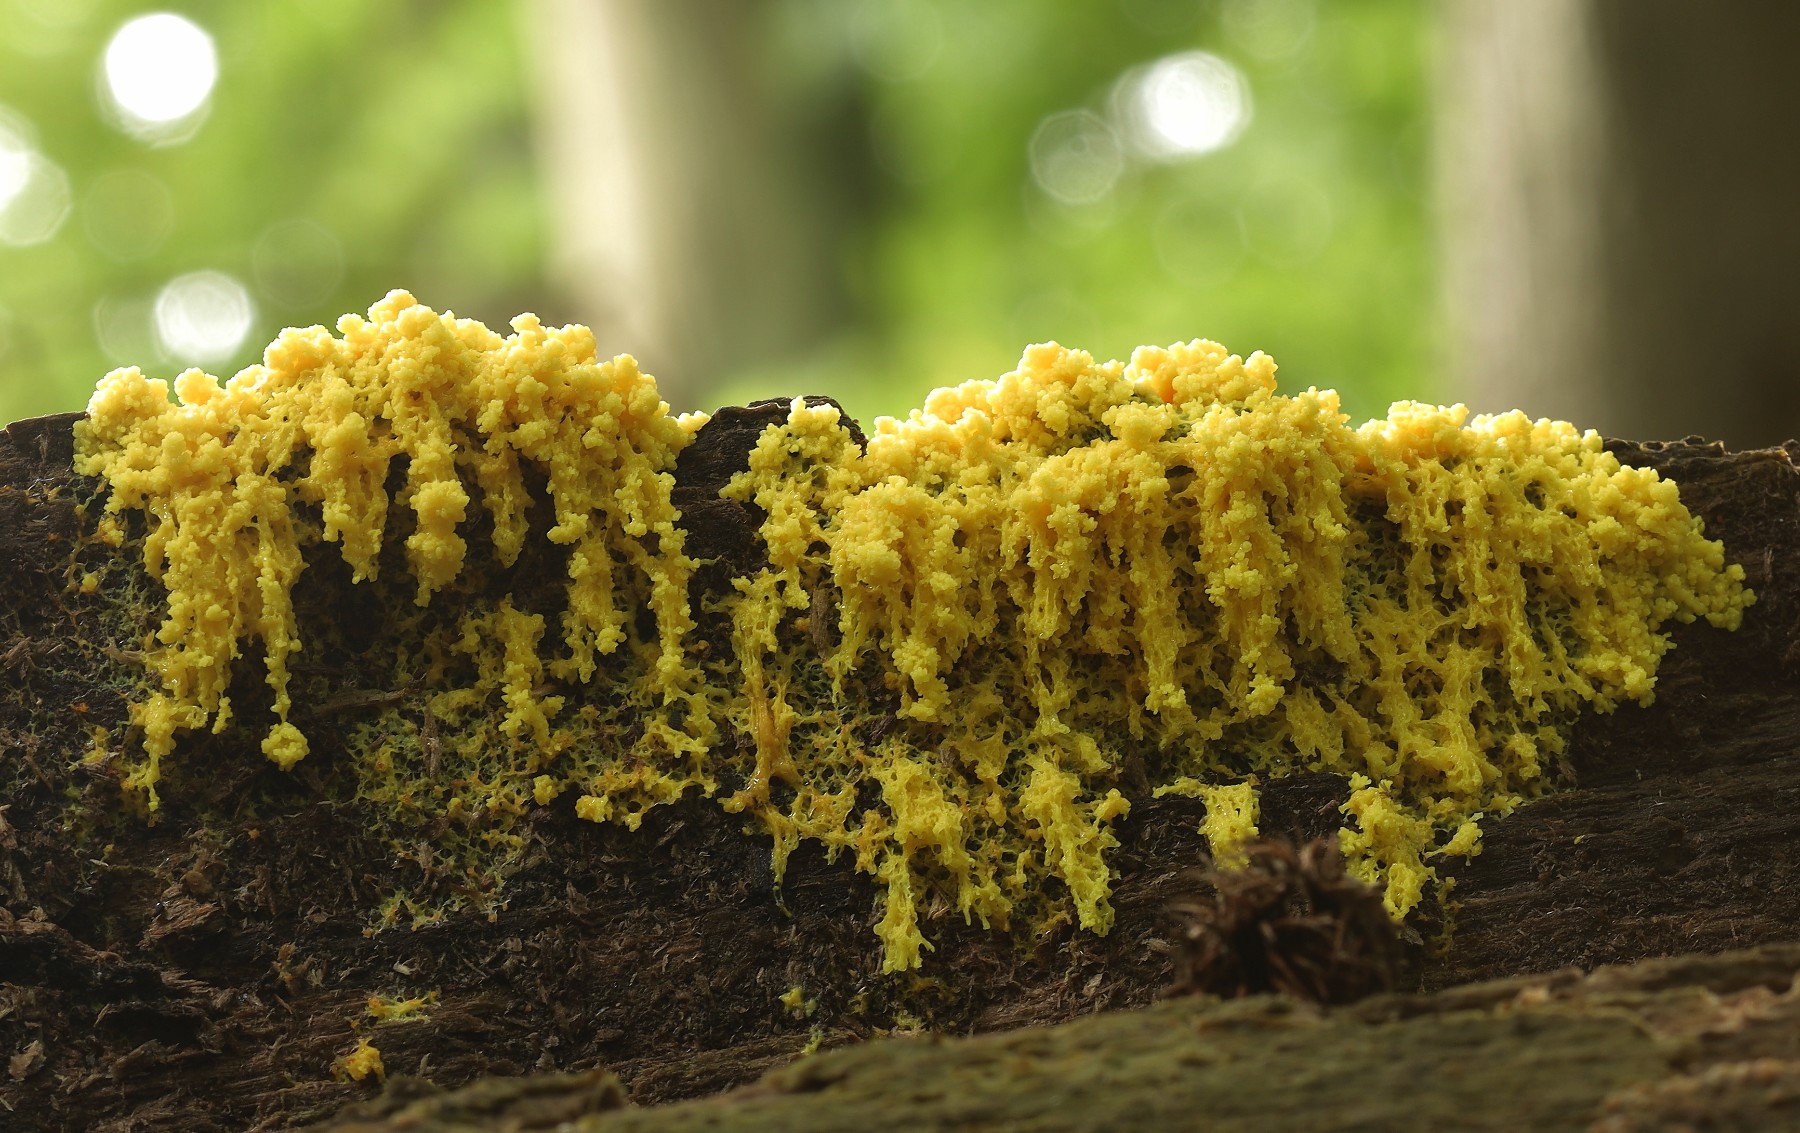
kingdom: Protozoa
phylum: Mycetozoa
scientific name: Mycetozoa
